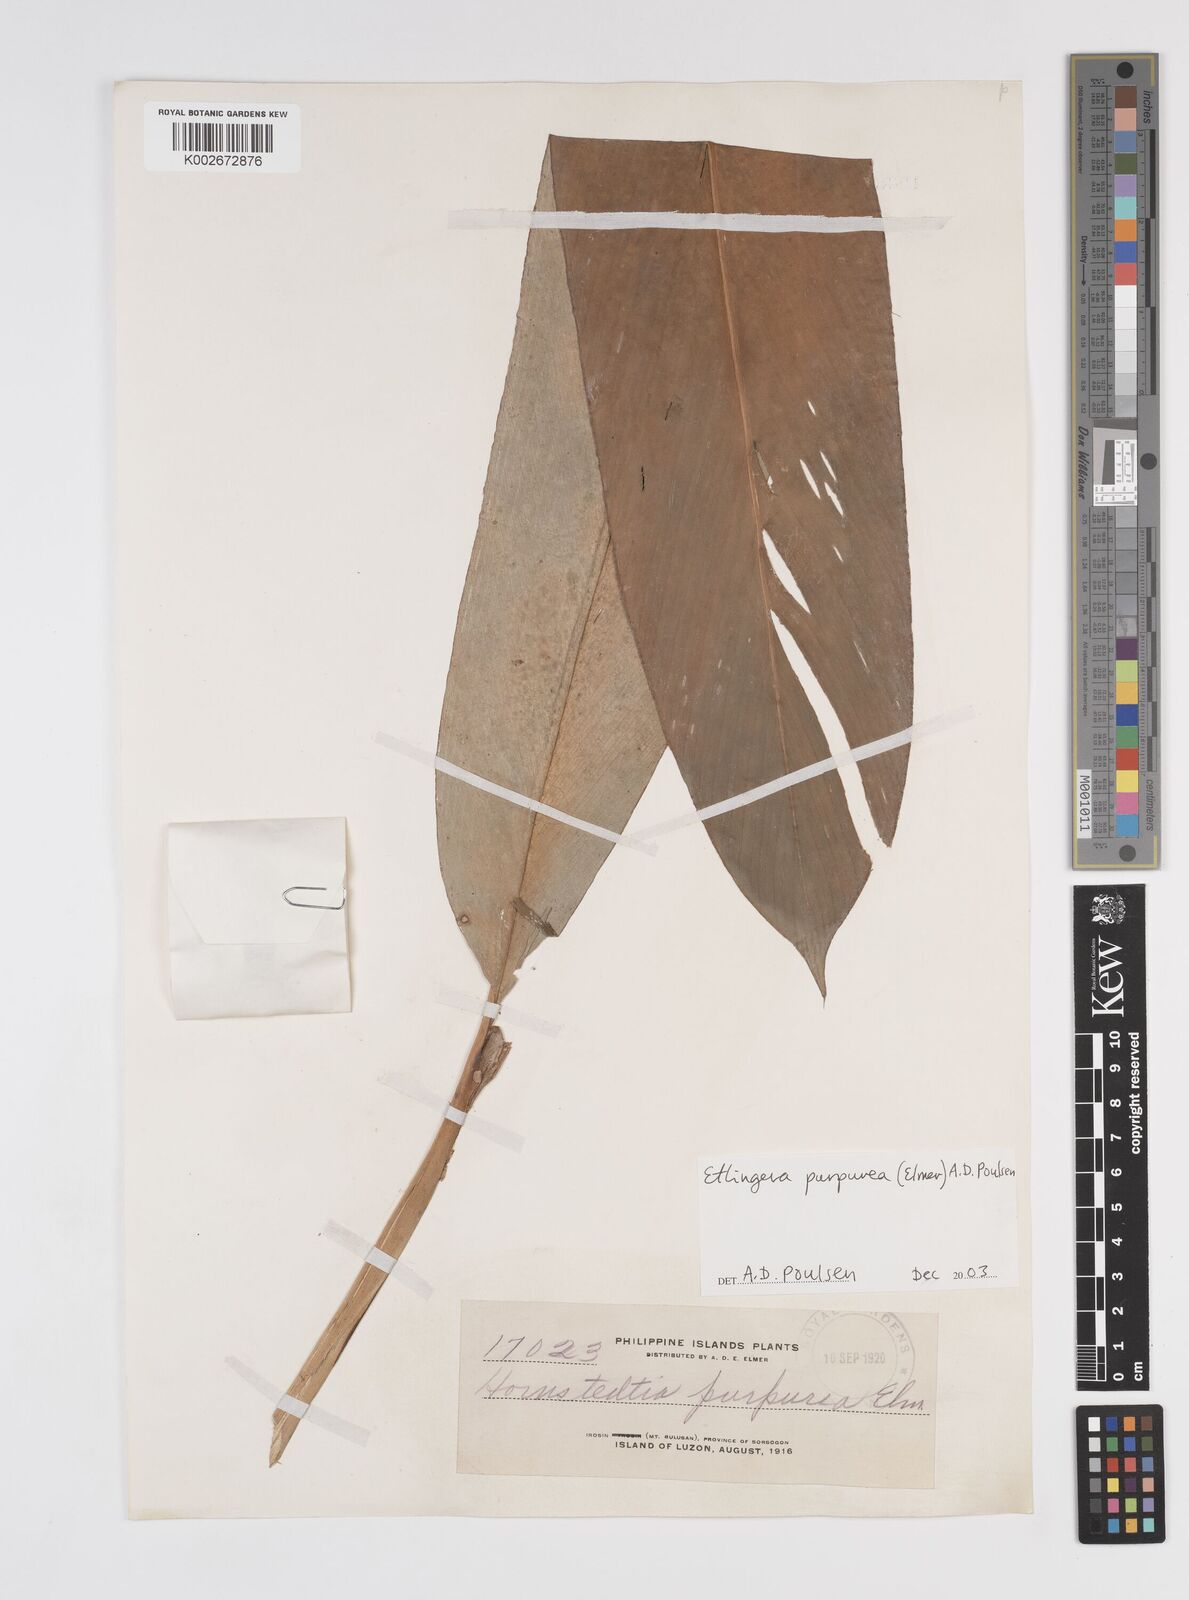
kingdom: Plantae
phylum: Tracheophyta
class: Liliopsida
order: Zingiberales
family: Zingiberaceae
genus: Etlingera
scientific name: Etlingera purpurea
